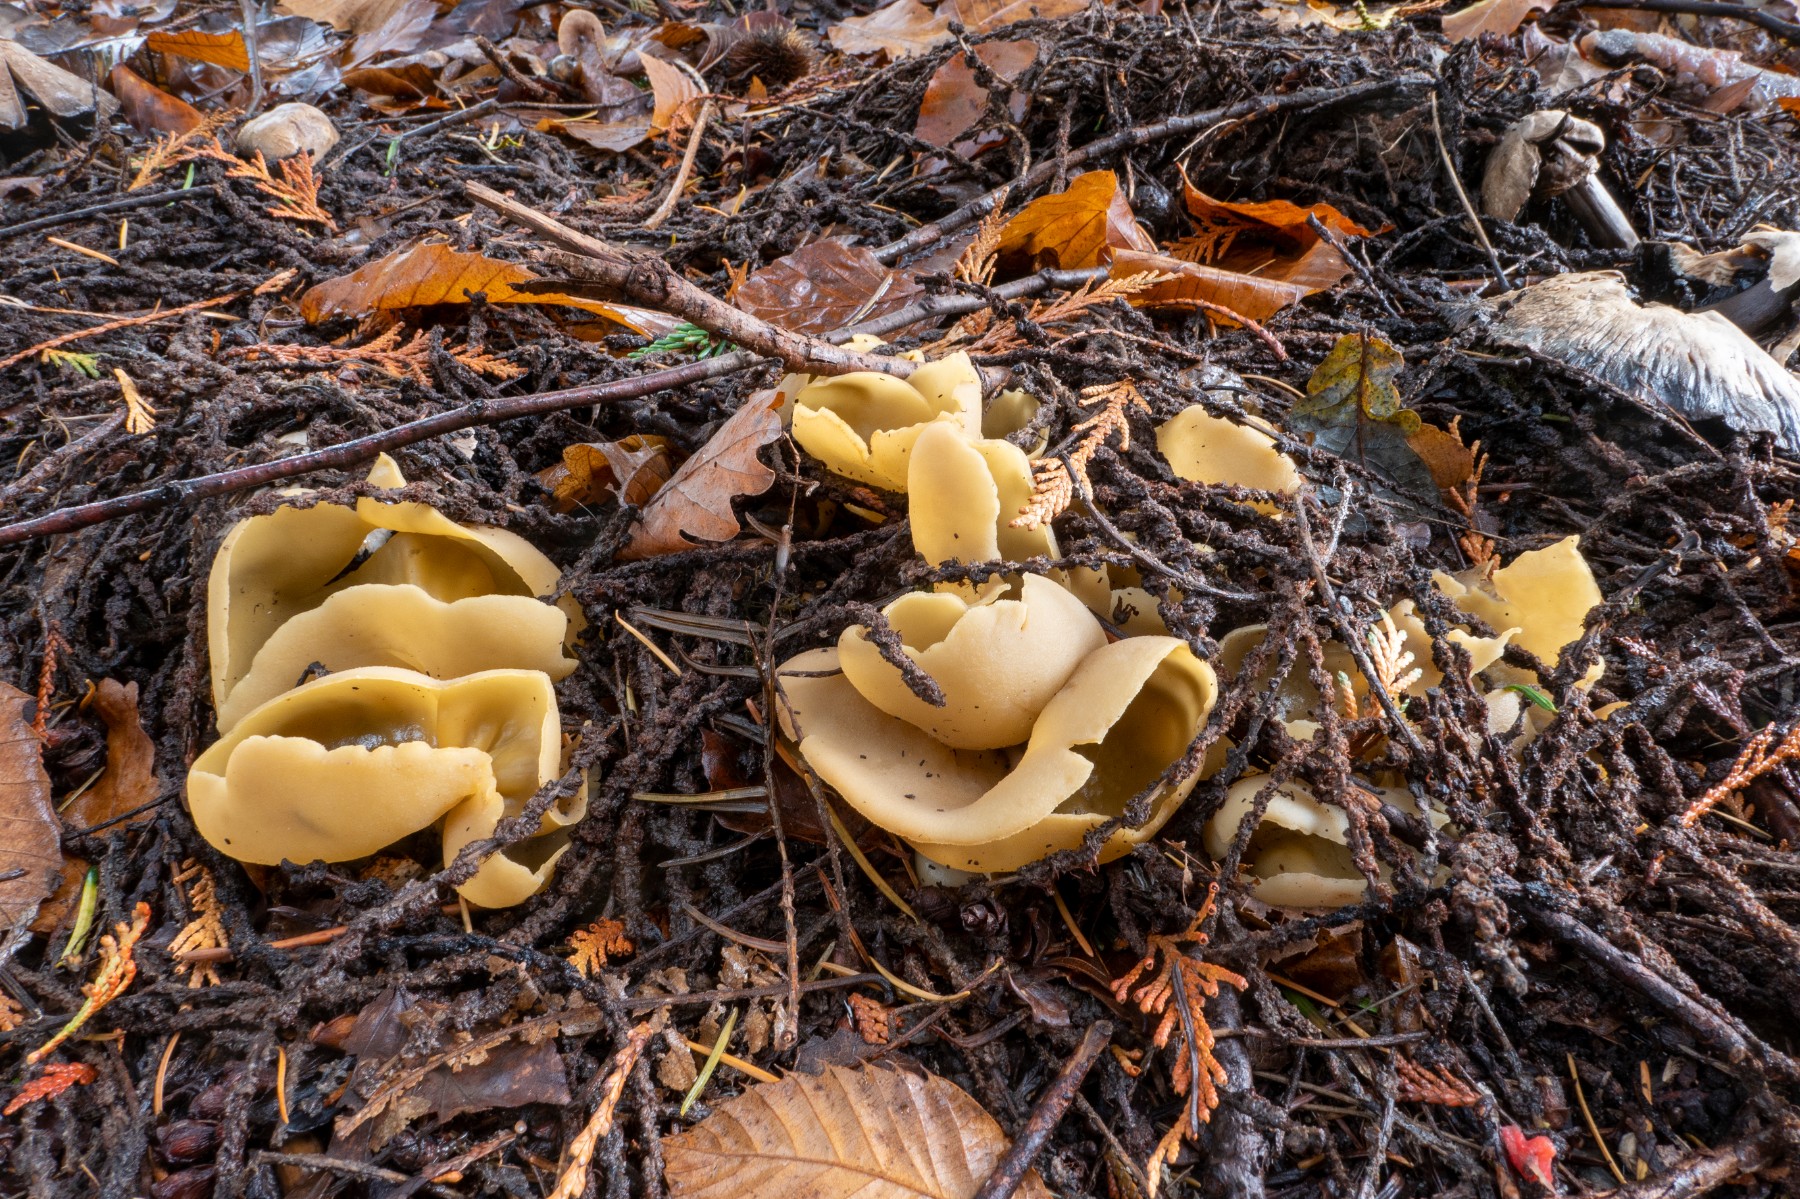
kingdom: Fungi
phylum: Ascomycota
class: Pezizomycetes
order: Pezizales
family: Pyronemataceae
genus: Sowerbyella
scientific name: Sowerbyella radiculata
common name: grøngul rodbæger
